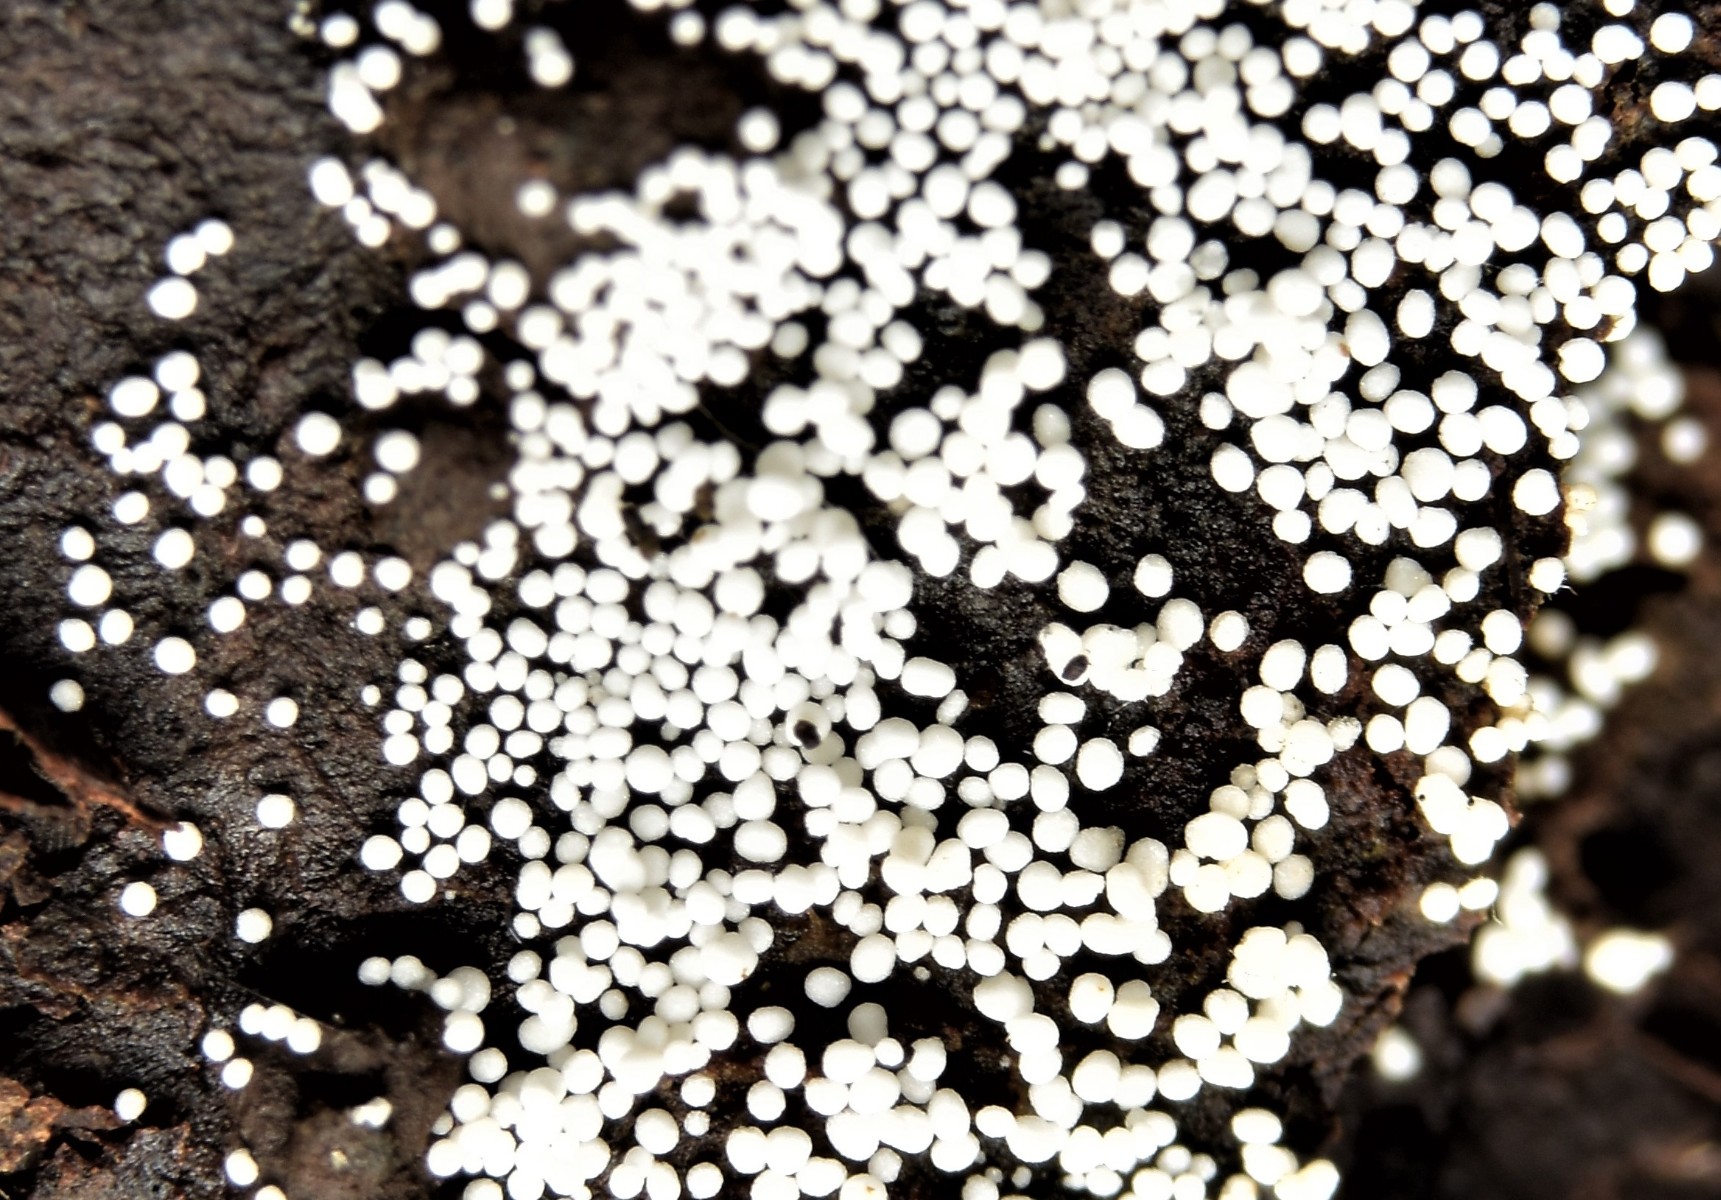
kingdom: Fungi
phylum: Basidiomycota
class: Agaricomycetes
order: Polyporales
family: Meruliaceae
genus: Bulbillomyces
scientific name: Bulbillomyces farinosus
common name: æg-kalkskind
